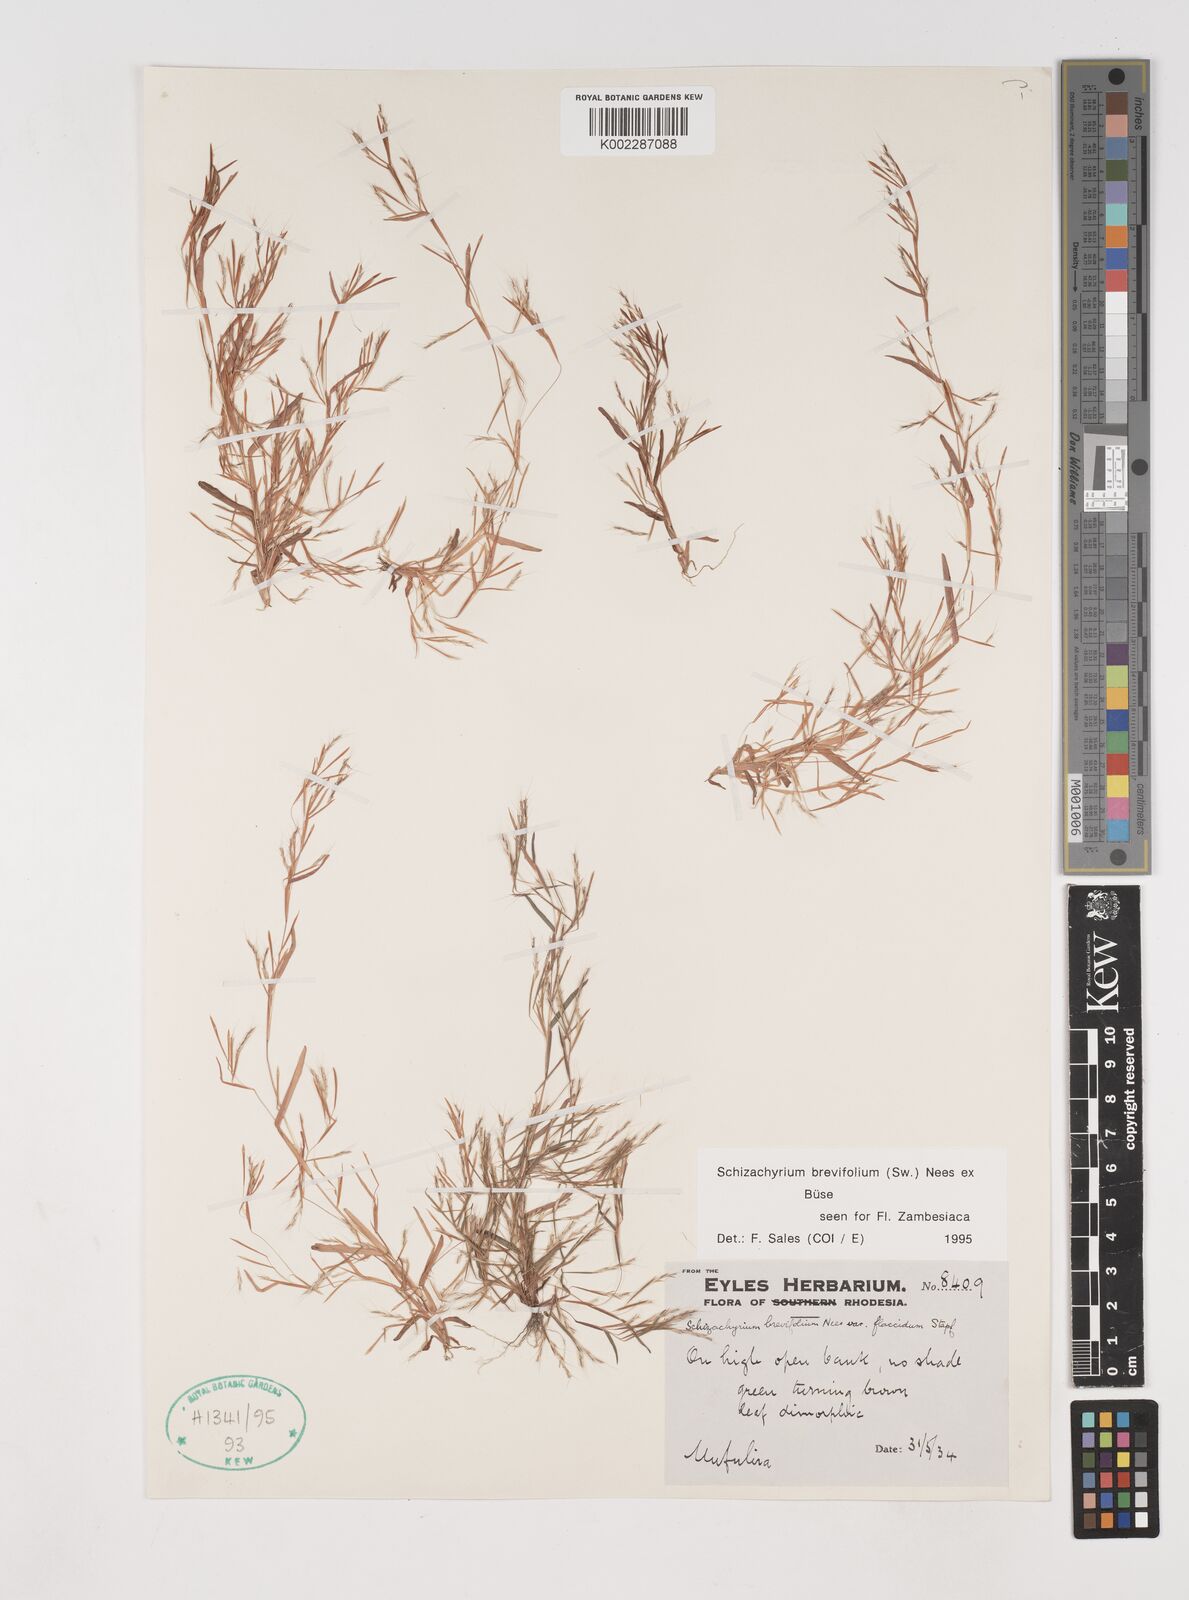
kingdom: Plantae
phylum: Tracheophyta
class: Liliopsida
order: Poales
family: Poaceae
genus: Schizachyrium
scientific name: Schizachyrium brevifolium
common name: Serillo dulce
